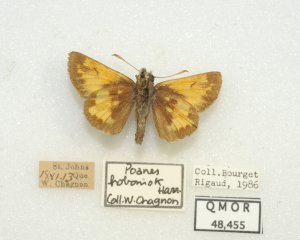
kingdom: Animalia
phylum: Arthropoda
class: Insecta
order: Lepidoptera
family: Hesperiidae
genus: Lon
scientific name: Lon hobomok
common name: Hobomok Skipper
